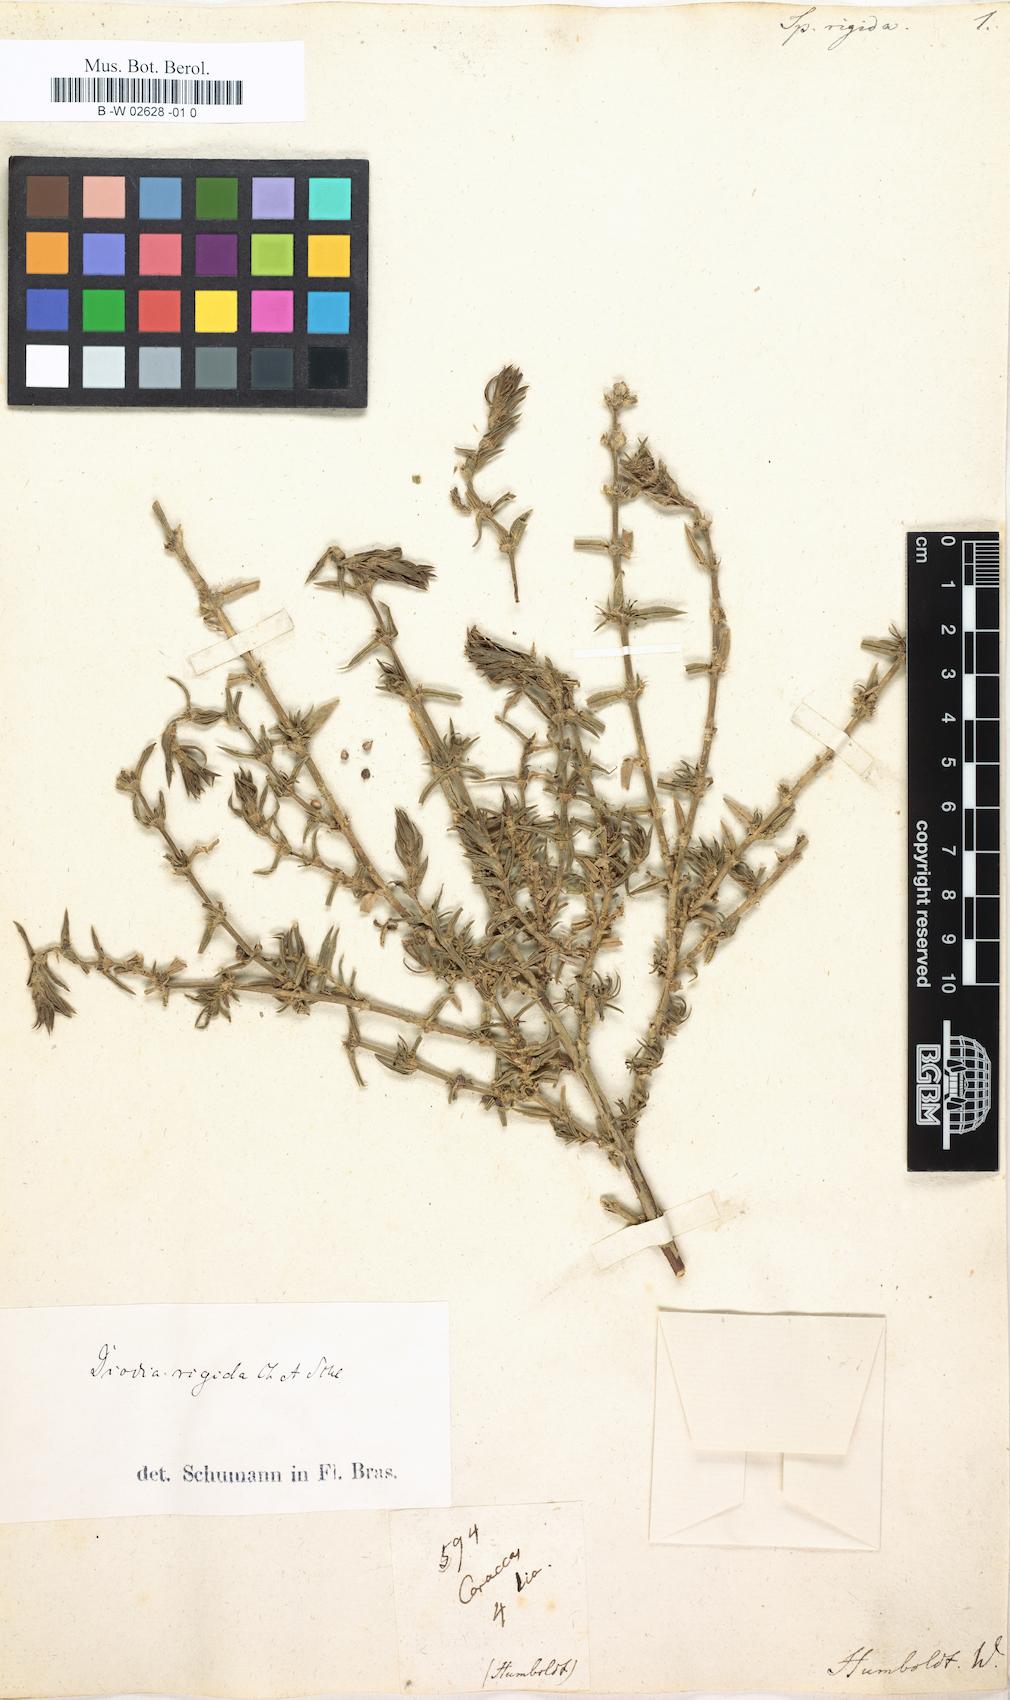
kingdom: Plantae
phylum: Tracheophyta
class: Magnoliopsida
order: Gentianales
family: Rubiaceae
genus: Hexasepalum
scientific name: Hexasepalum apiculatum
